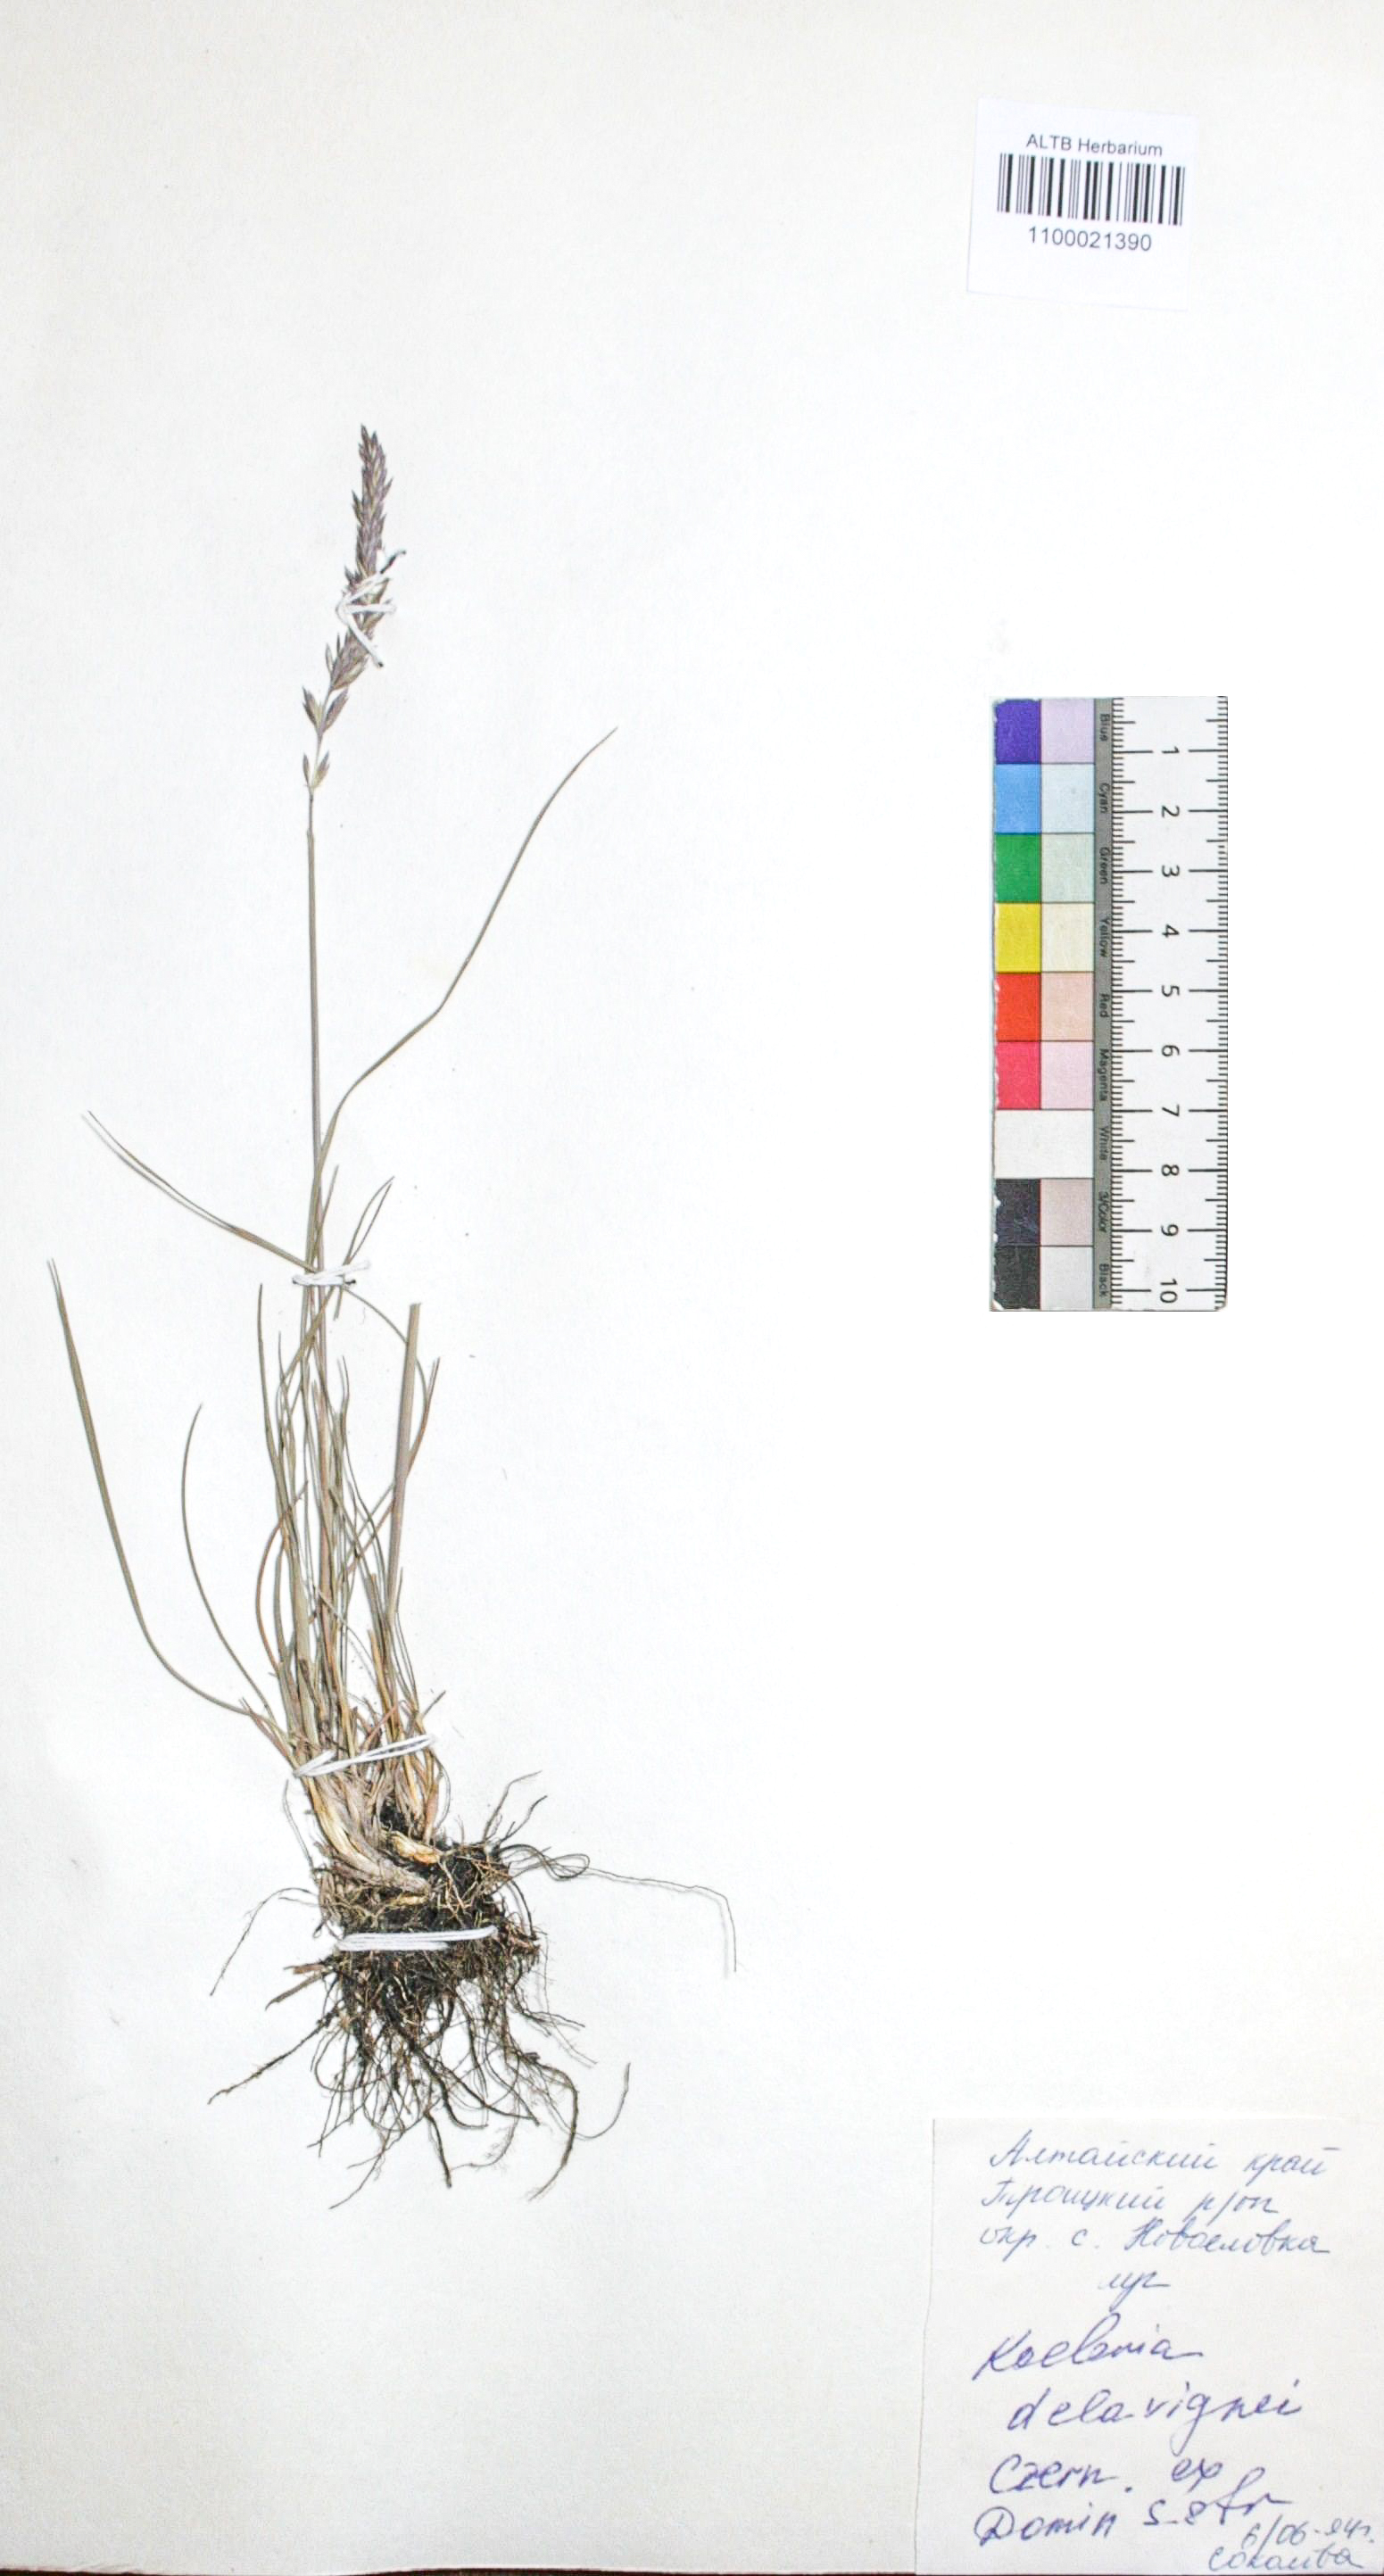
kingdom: Plantae
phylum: Tracheophyta
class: Liliopsida
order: Poales
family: Poaceae
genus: Koeleria
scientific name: Koeleria delavignei
